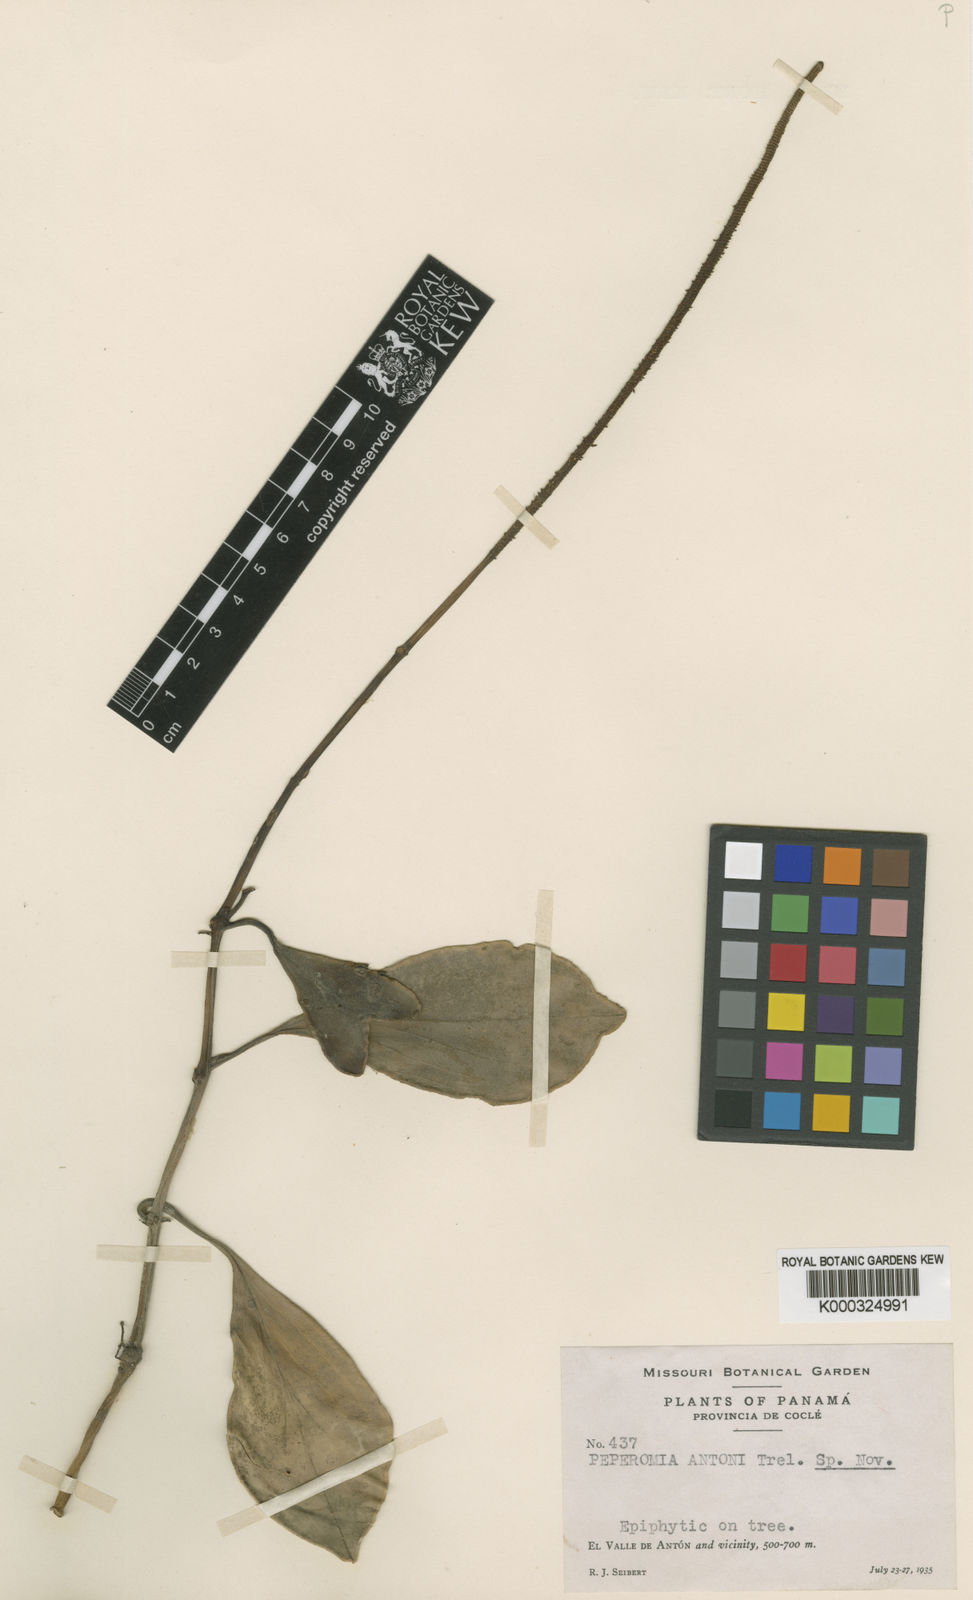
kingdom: Plantae
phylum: Tracheophyta
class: Magnoliopsida
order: Piperales
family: Piperaceae
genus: Peperomia
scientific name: Peperomia magnoliifolia
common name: Spoonleaf peperomia
